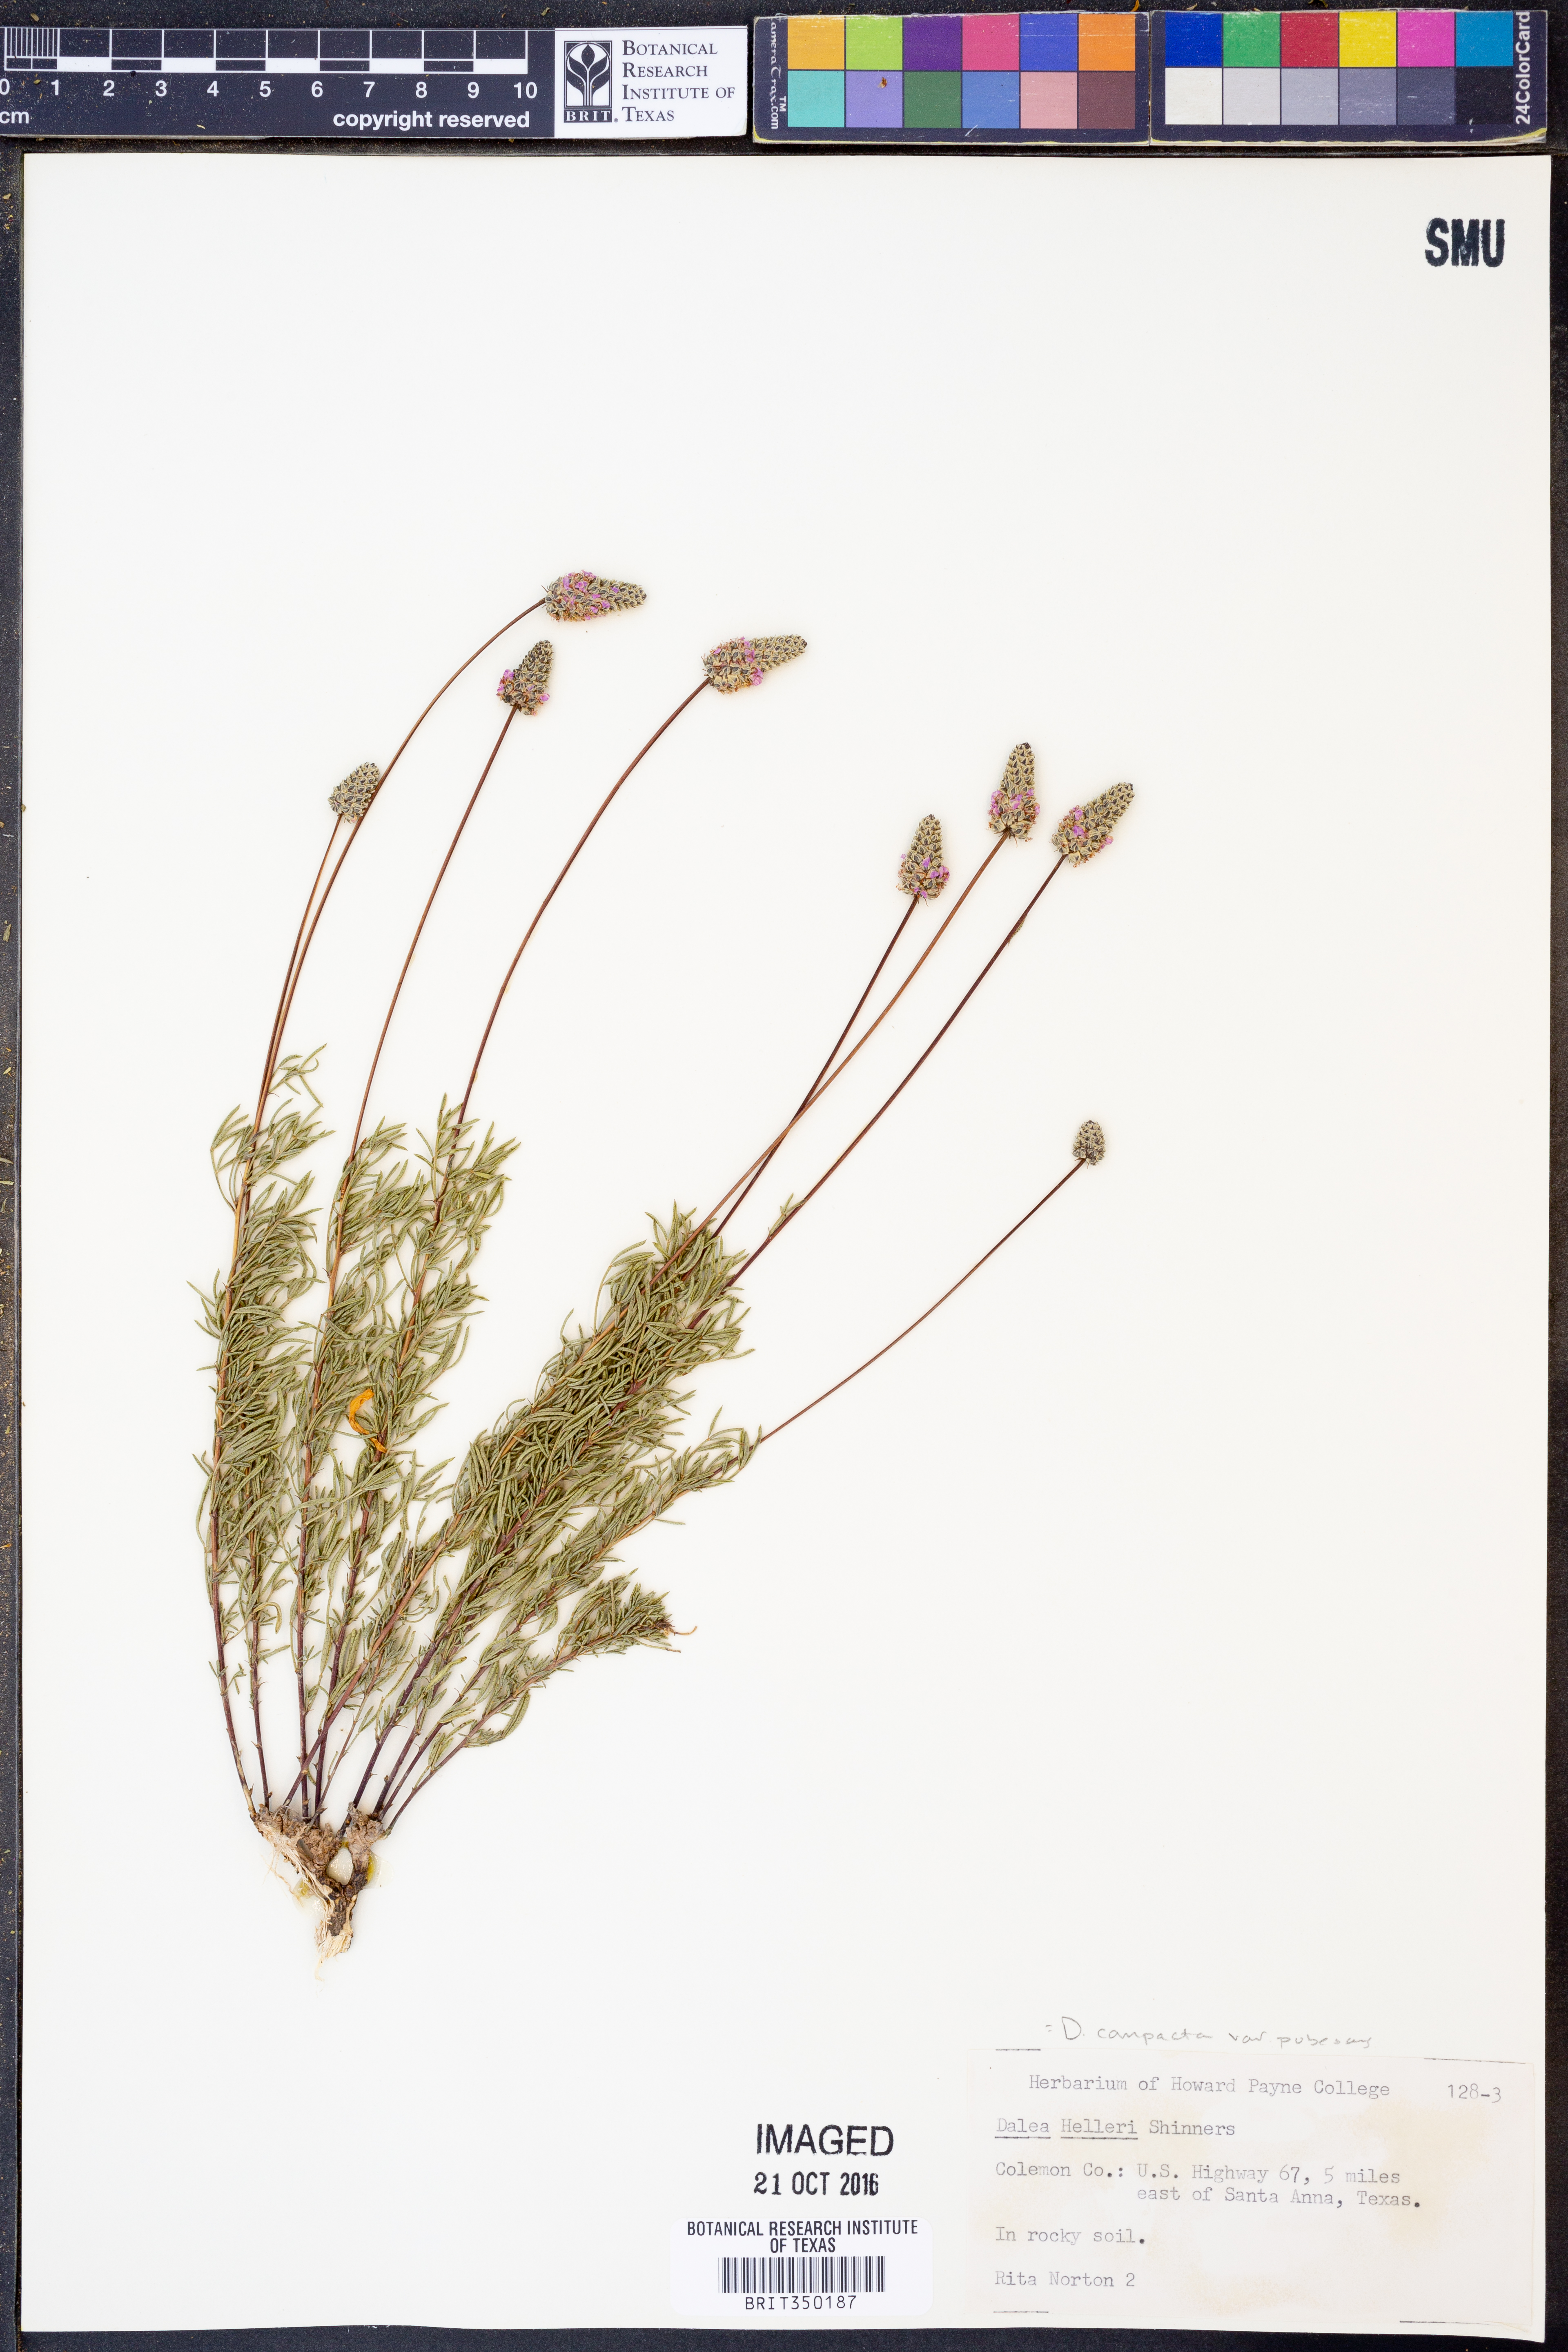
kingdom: Plantae
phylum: Tracheophyta
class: Magnoliopsida
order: Fabales
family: Fabaceae
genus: Dalea
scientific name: Dalea compacta
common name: Compact prairie-clover
